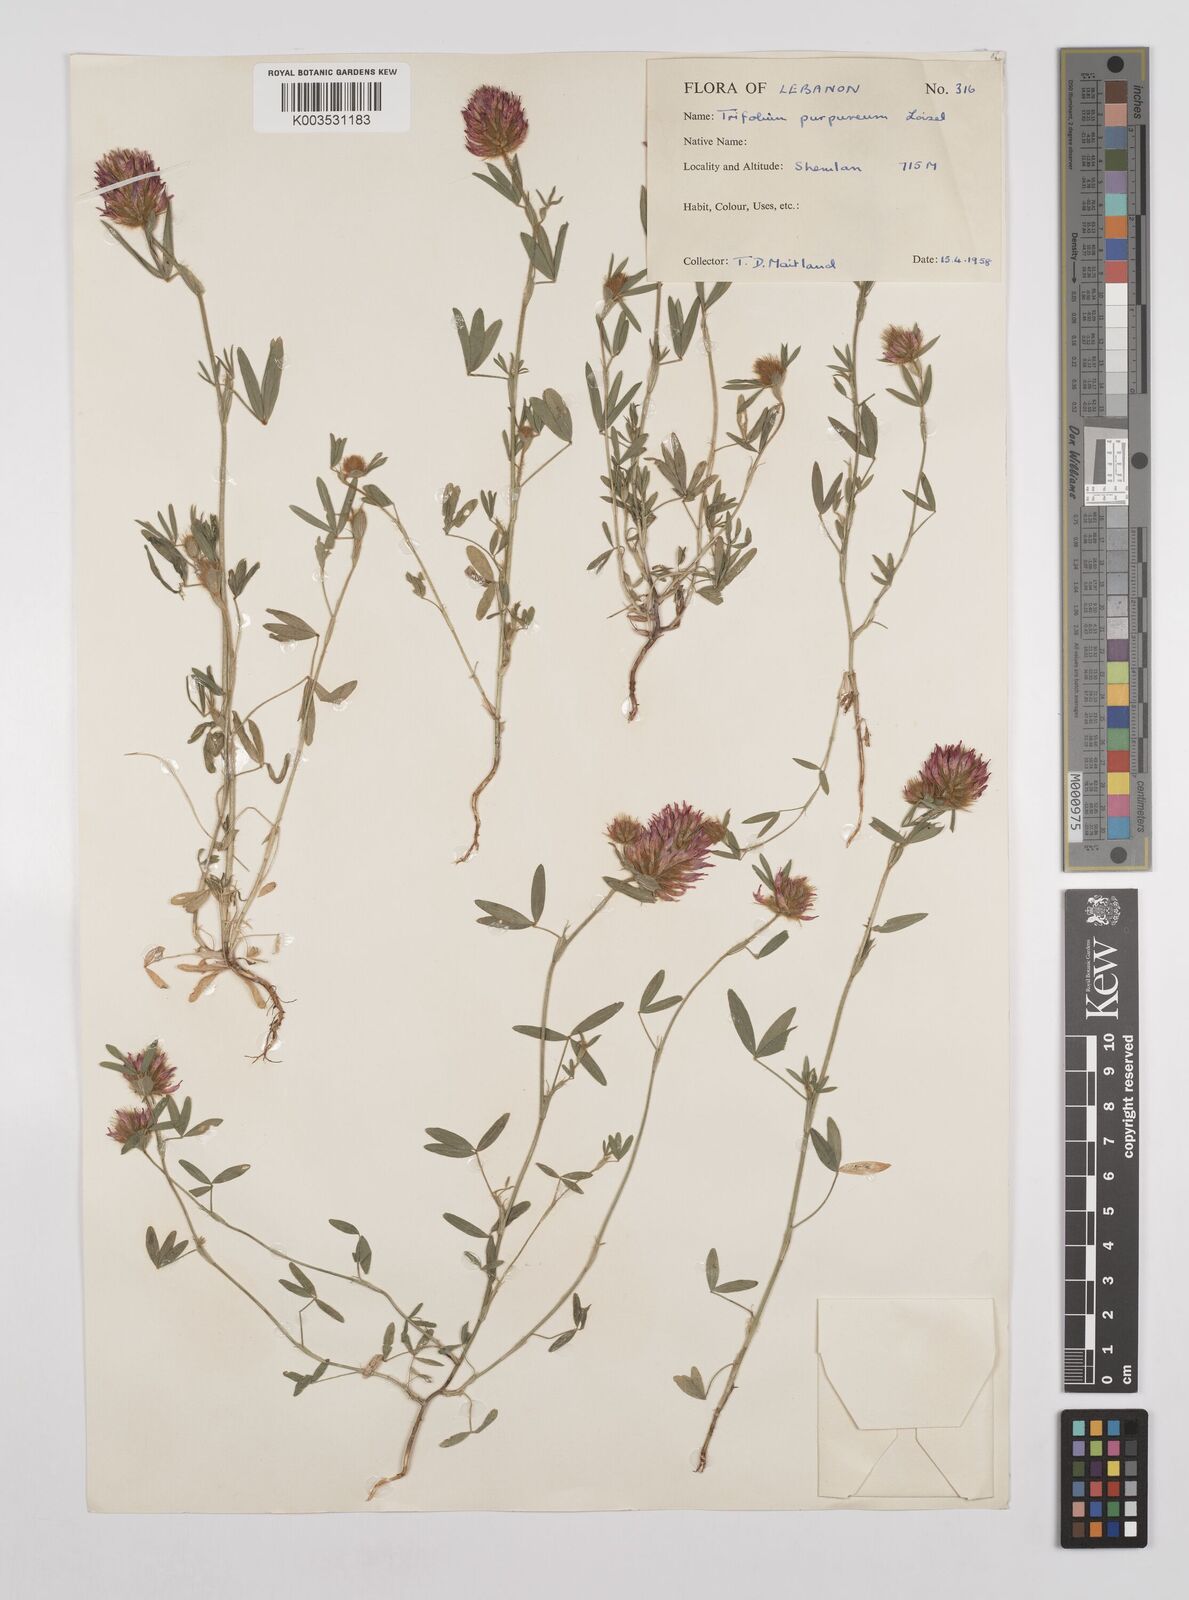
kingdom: Plantae
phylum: Tracheophyta
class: Magnoliopsida
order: Fabales
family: Fabaceae
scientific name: Fabaceae
